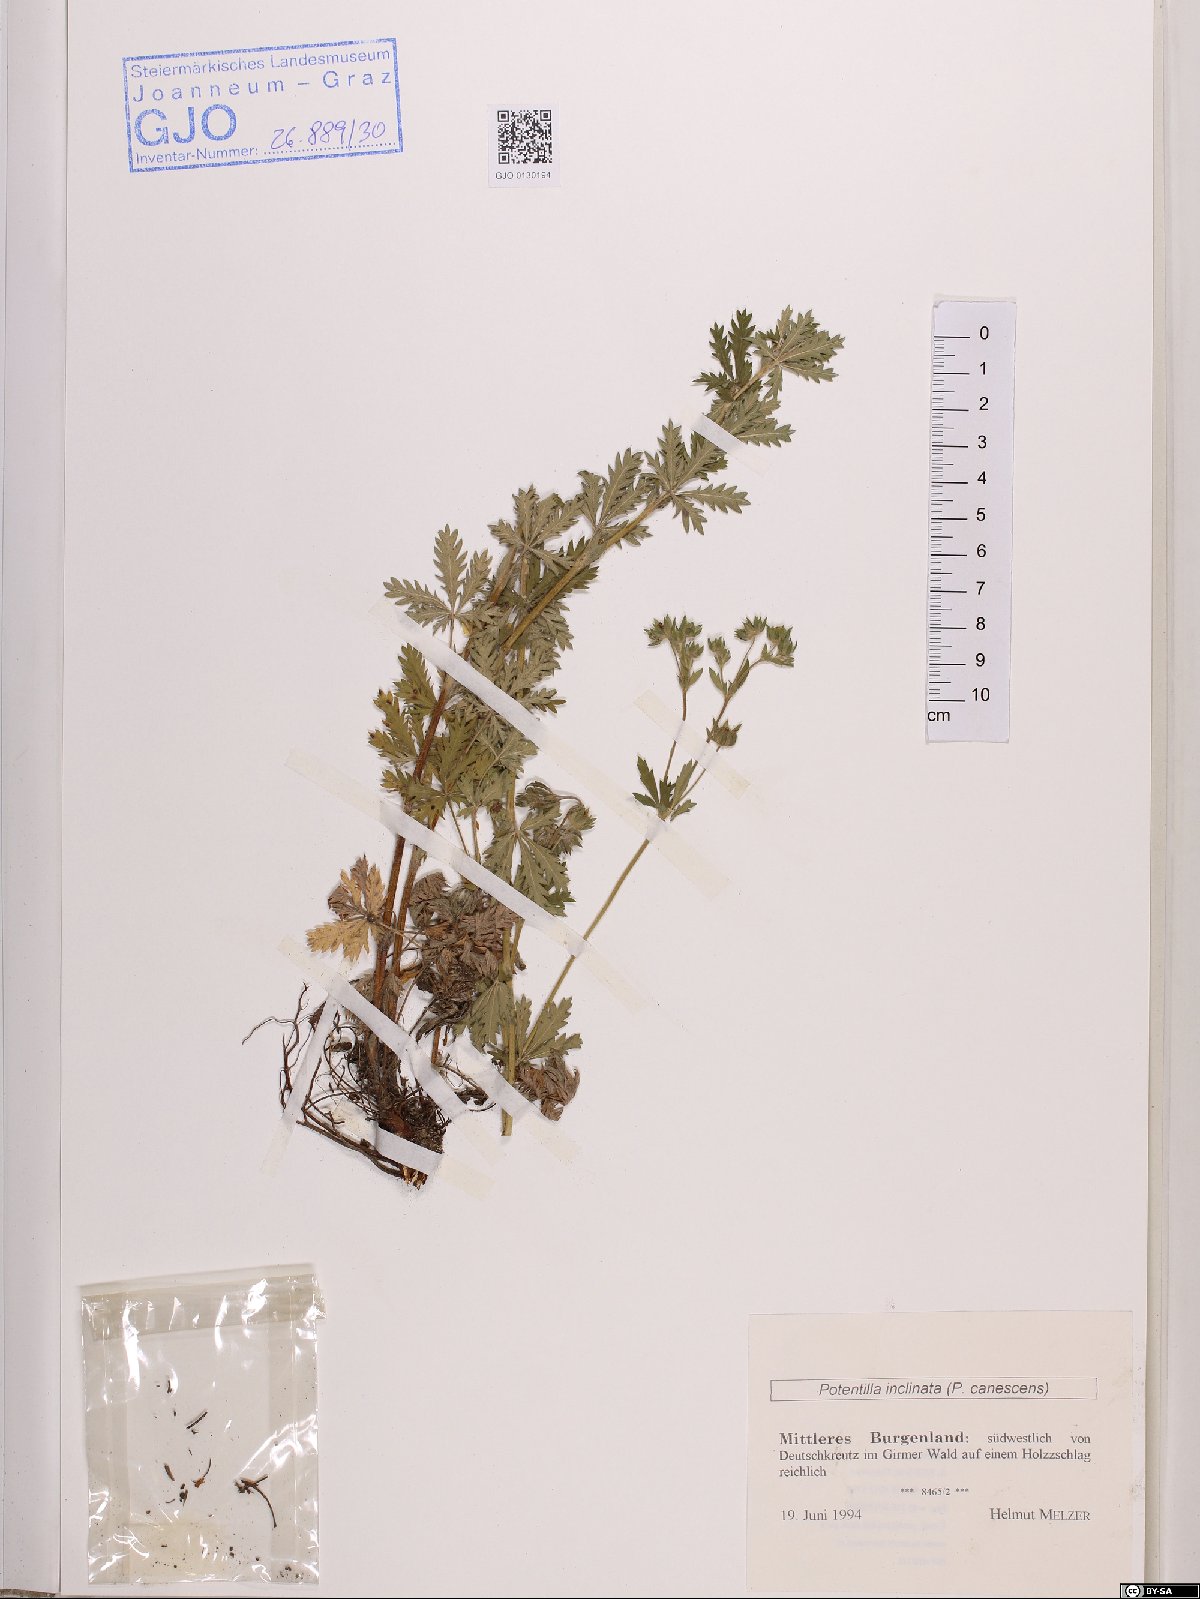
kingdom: Plantae
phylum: Tracheophyta
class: Magnoliopsida
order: Rosales
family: Rosaceae
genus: Potentilla
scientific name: Potentilla inclinata
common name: Grey cinquefoil
